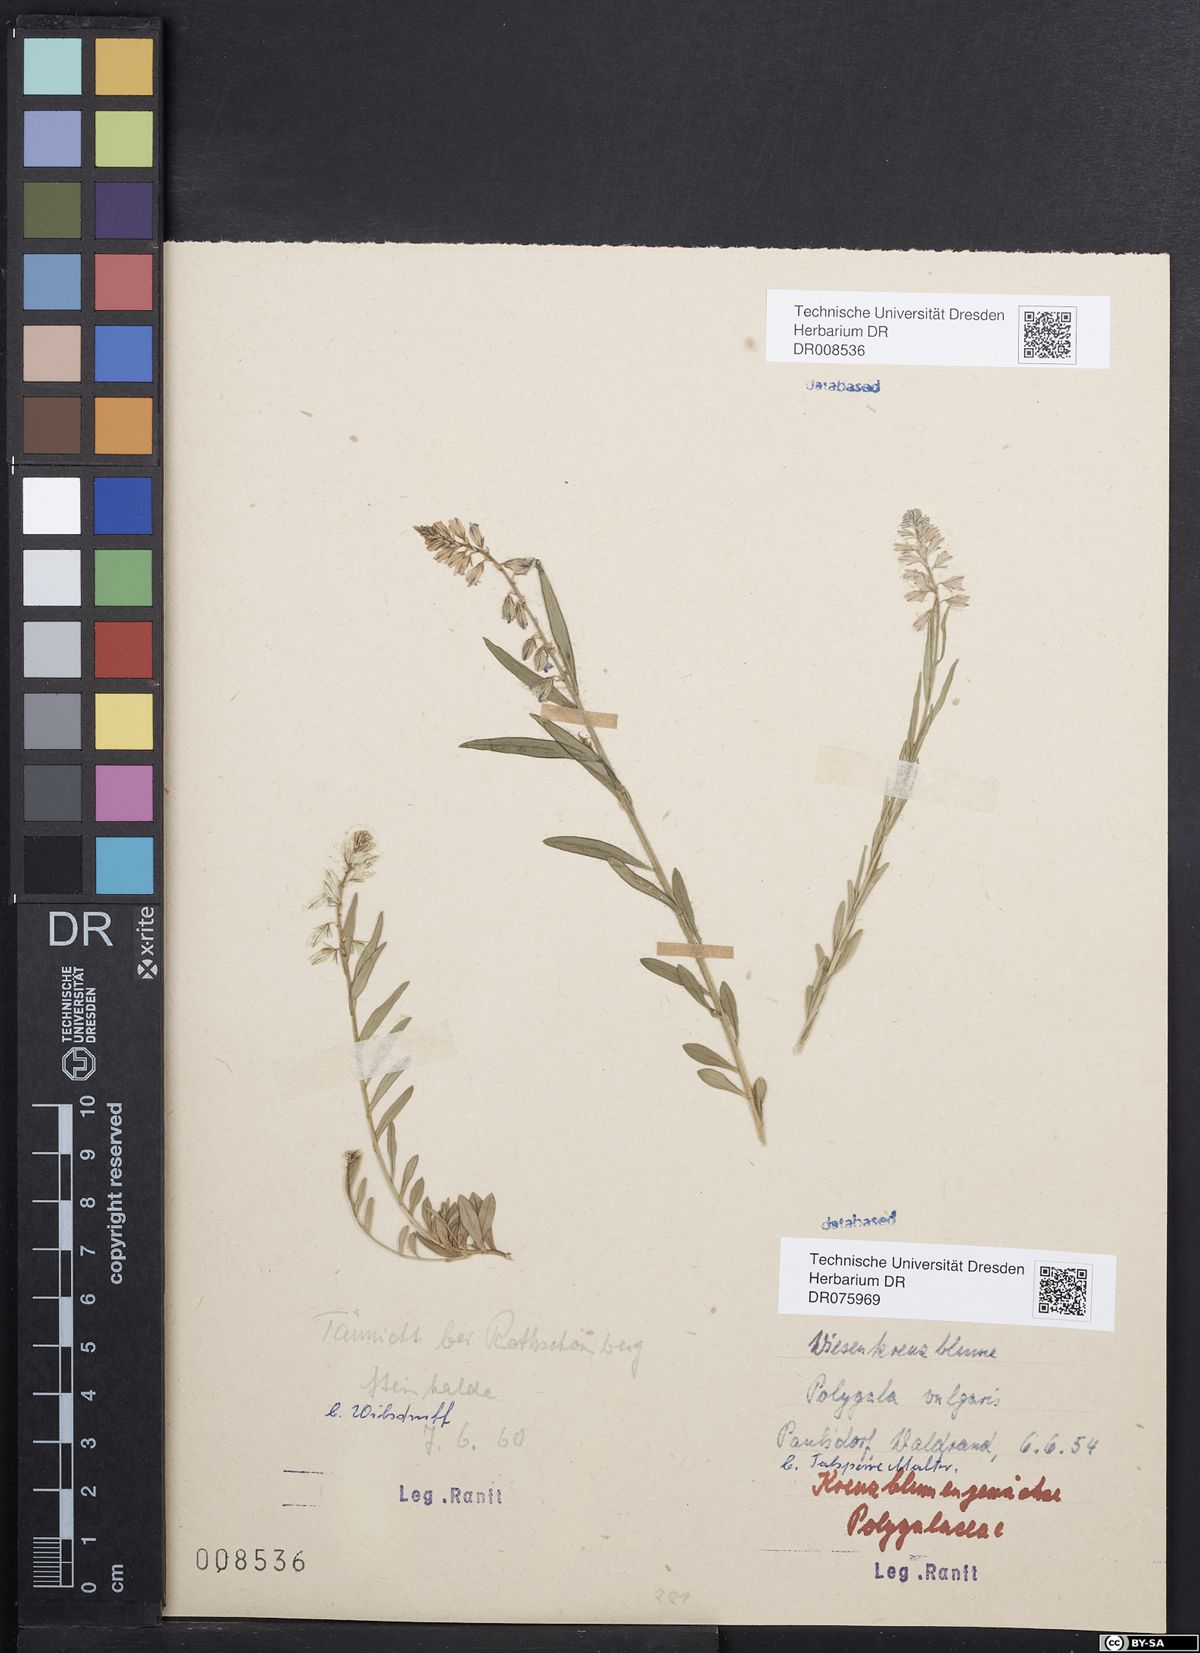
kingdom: Plantae
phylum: Tracheophyta
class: Magnoliopsida
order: Fabales
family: Polygalaceae
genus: Polygala
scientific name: Polygala vulgaris
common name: Common milkwort
